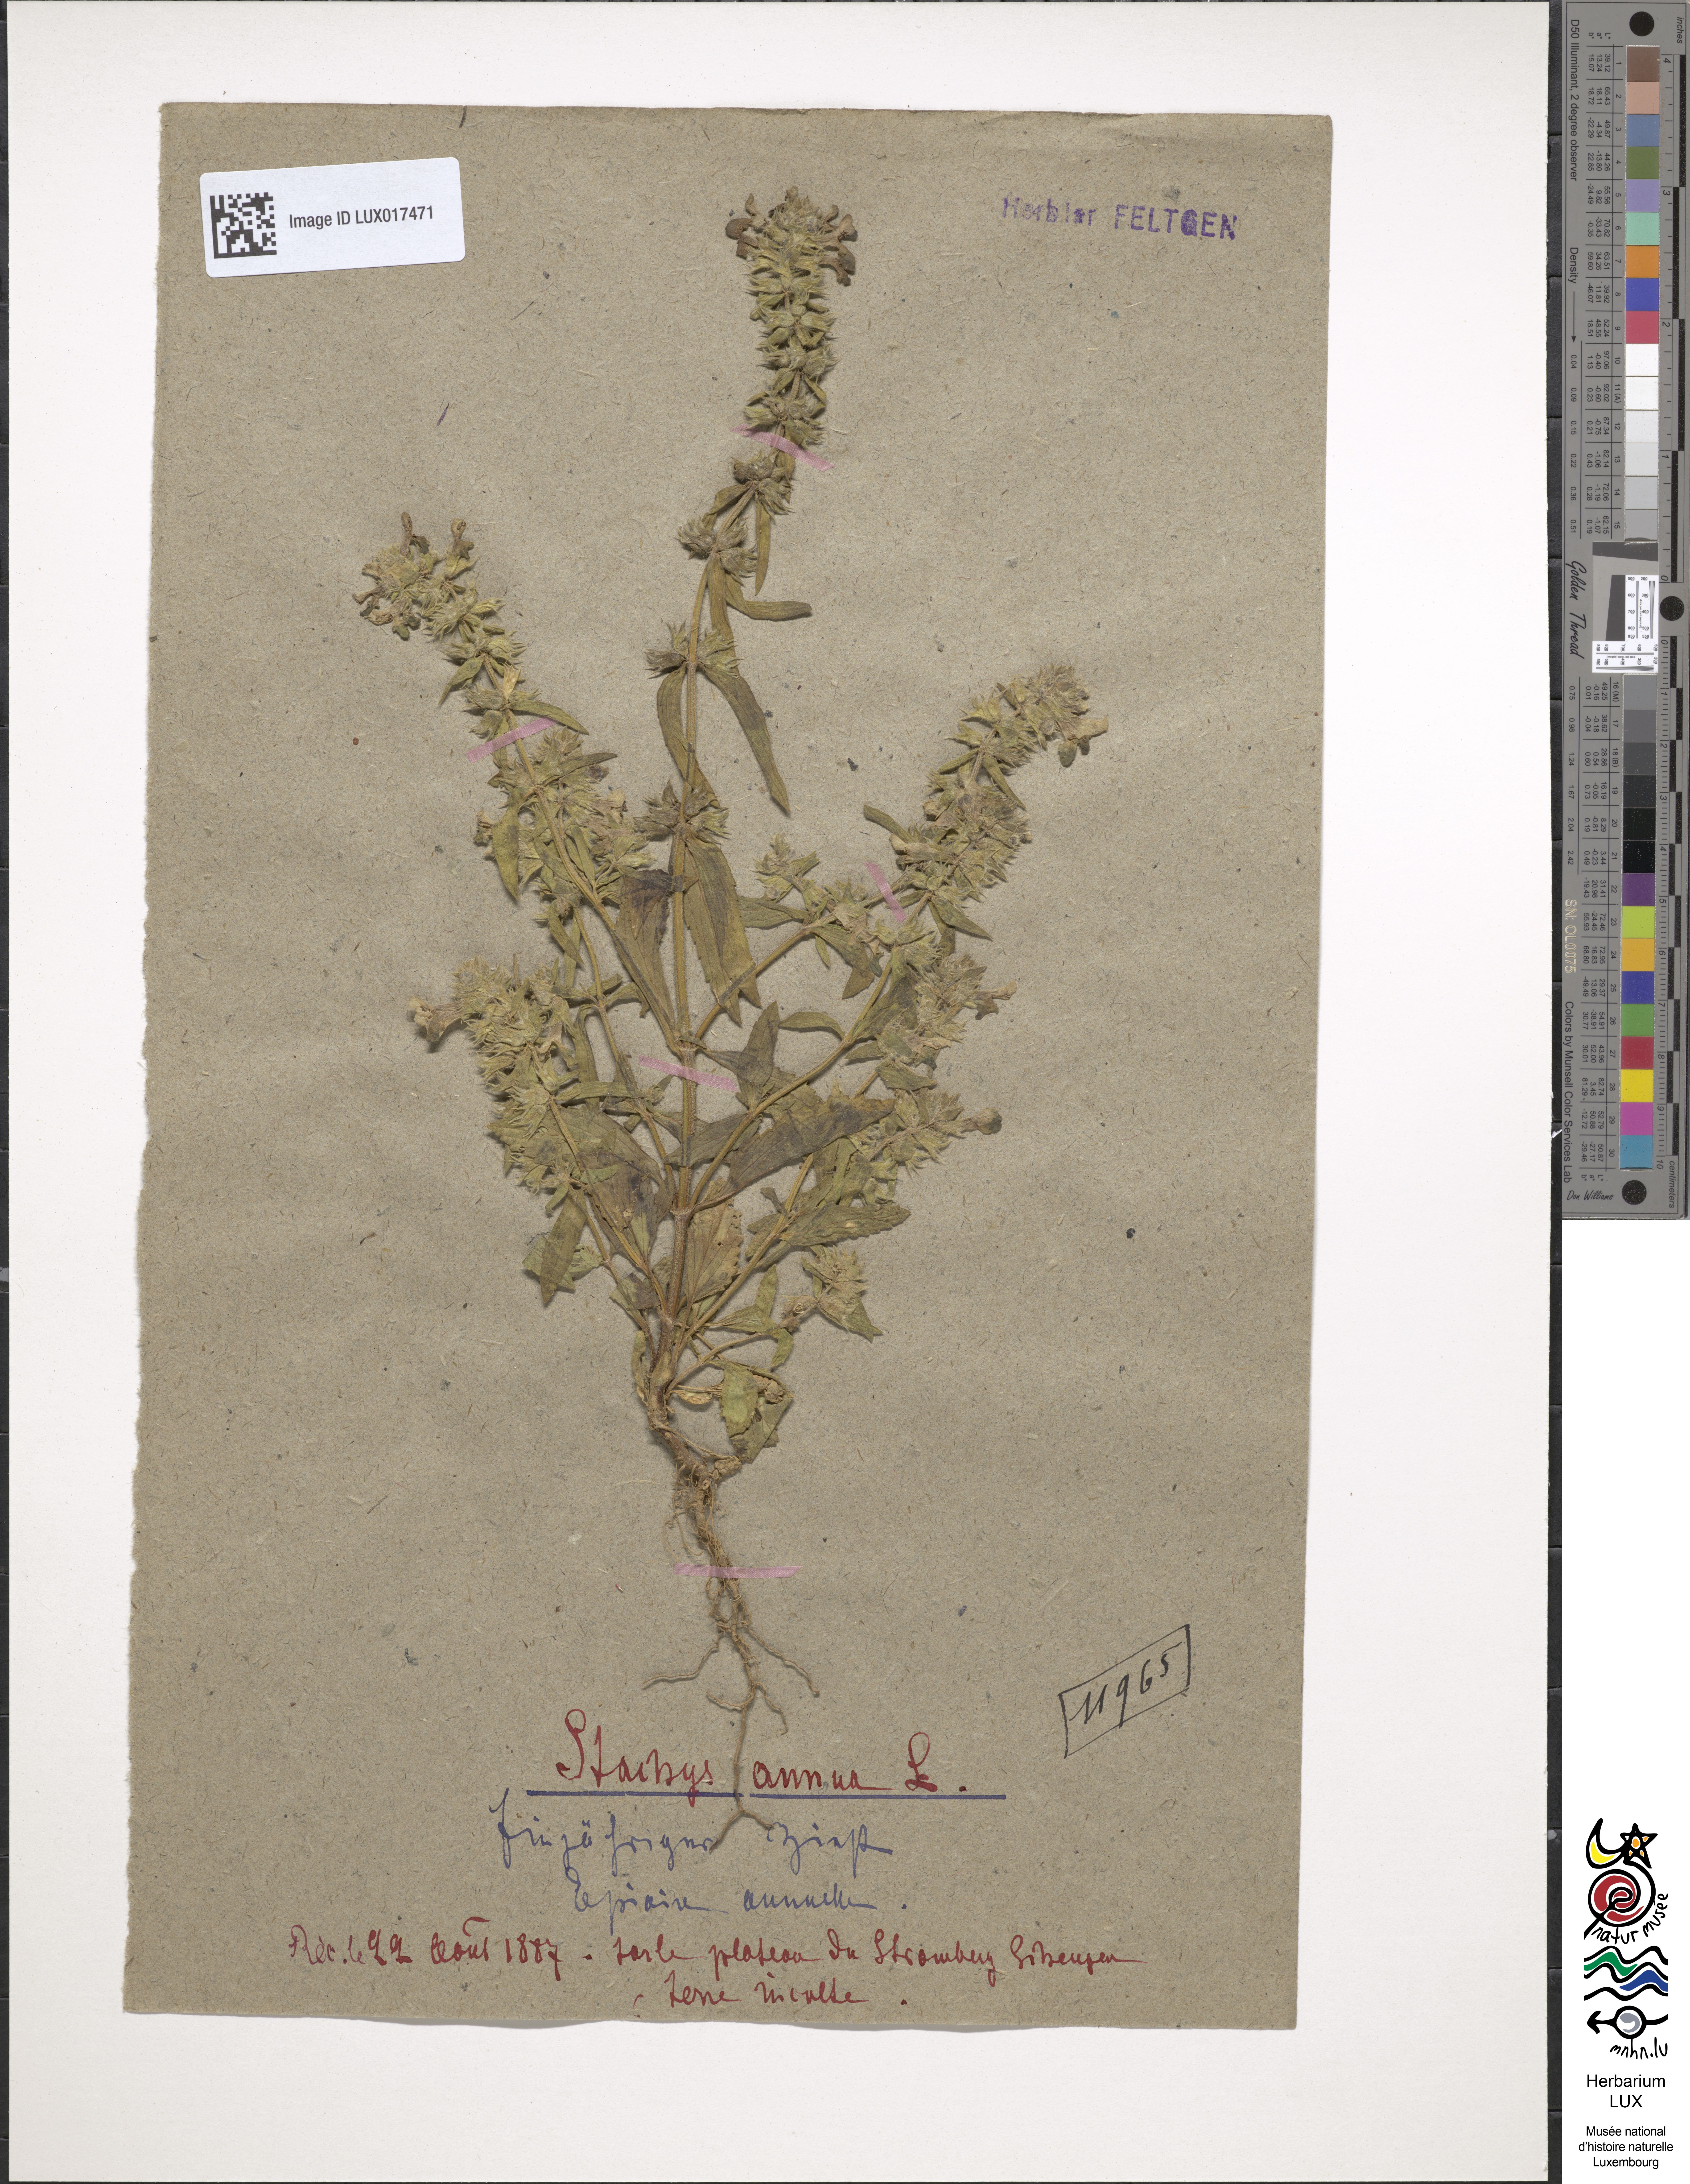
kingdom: Plantae
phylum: Tracheophyta
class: Magnoliopsida
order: Lamiales
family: Lamiaceae
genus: Stachys
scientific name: Stachys annua
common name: Annual yellow-woundwort
